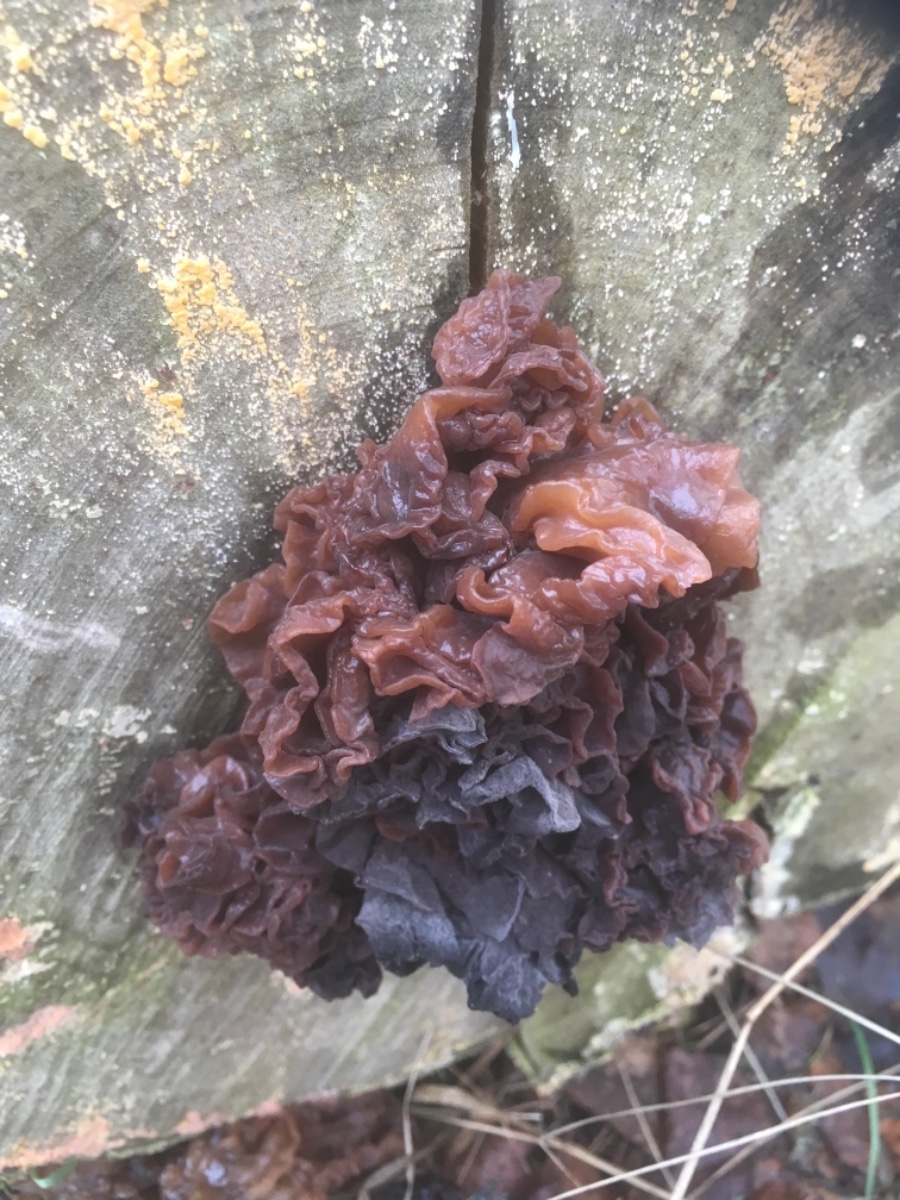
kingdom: Fungi
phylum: Basidiomycota
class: Tremellomycetes
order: Tremellales
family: Tremellaceae
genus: Phaeotremella
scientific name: Phaeotremella frondosa
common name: kæmpe-bævresvamp
